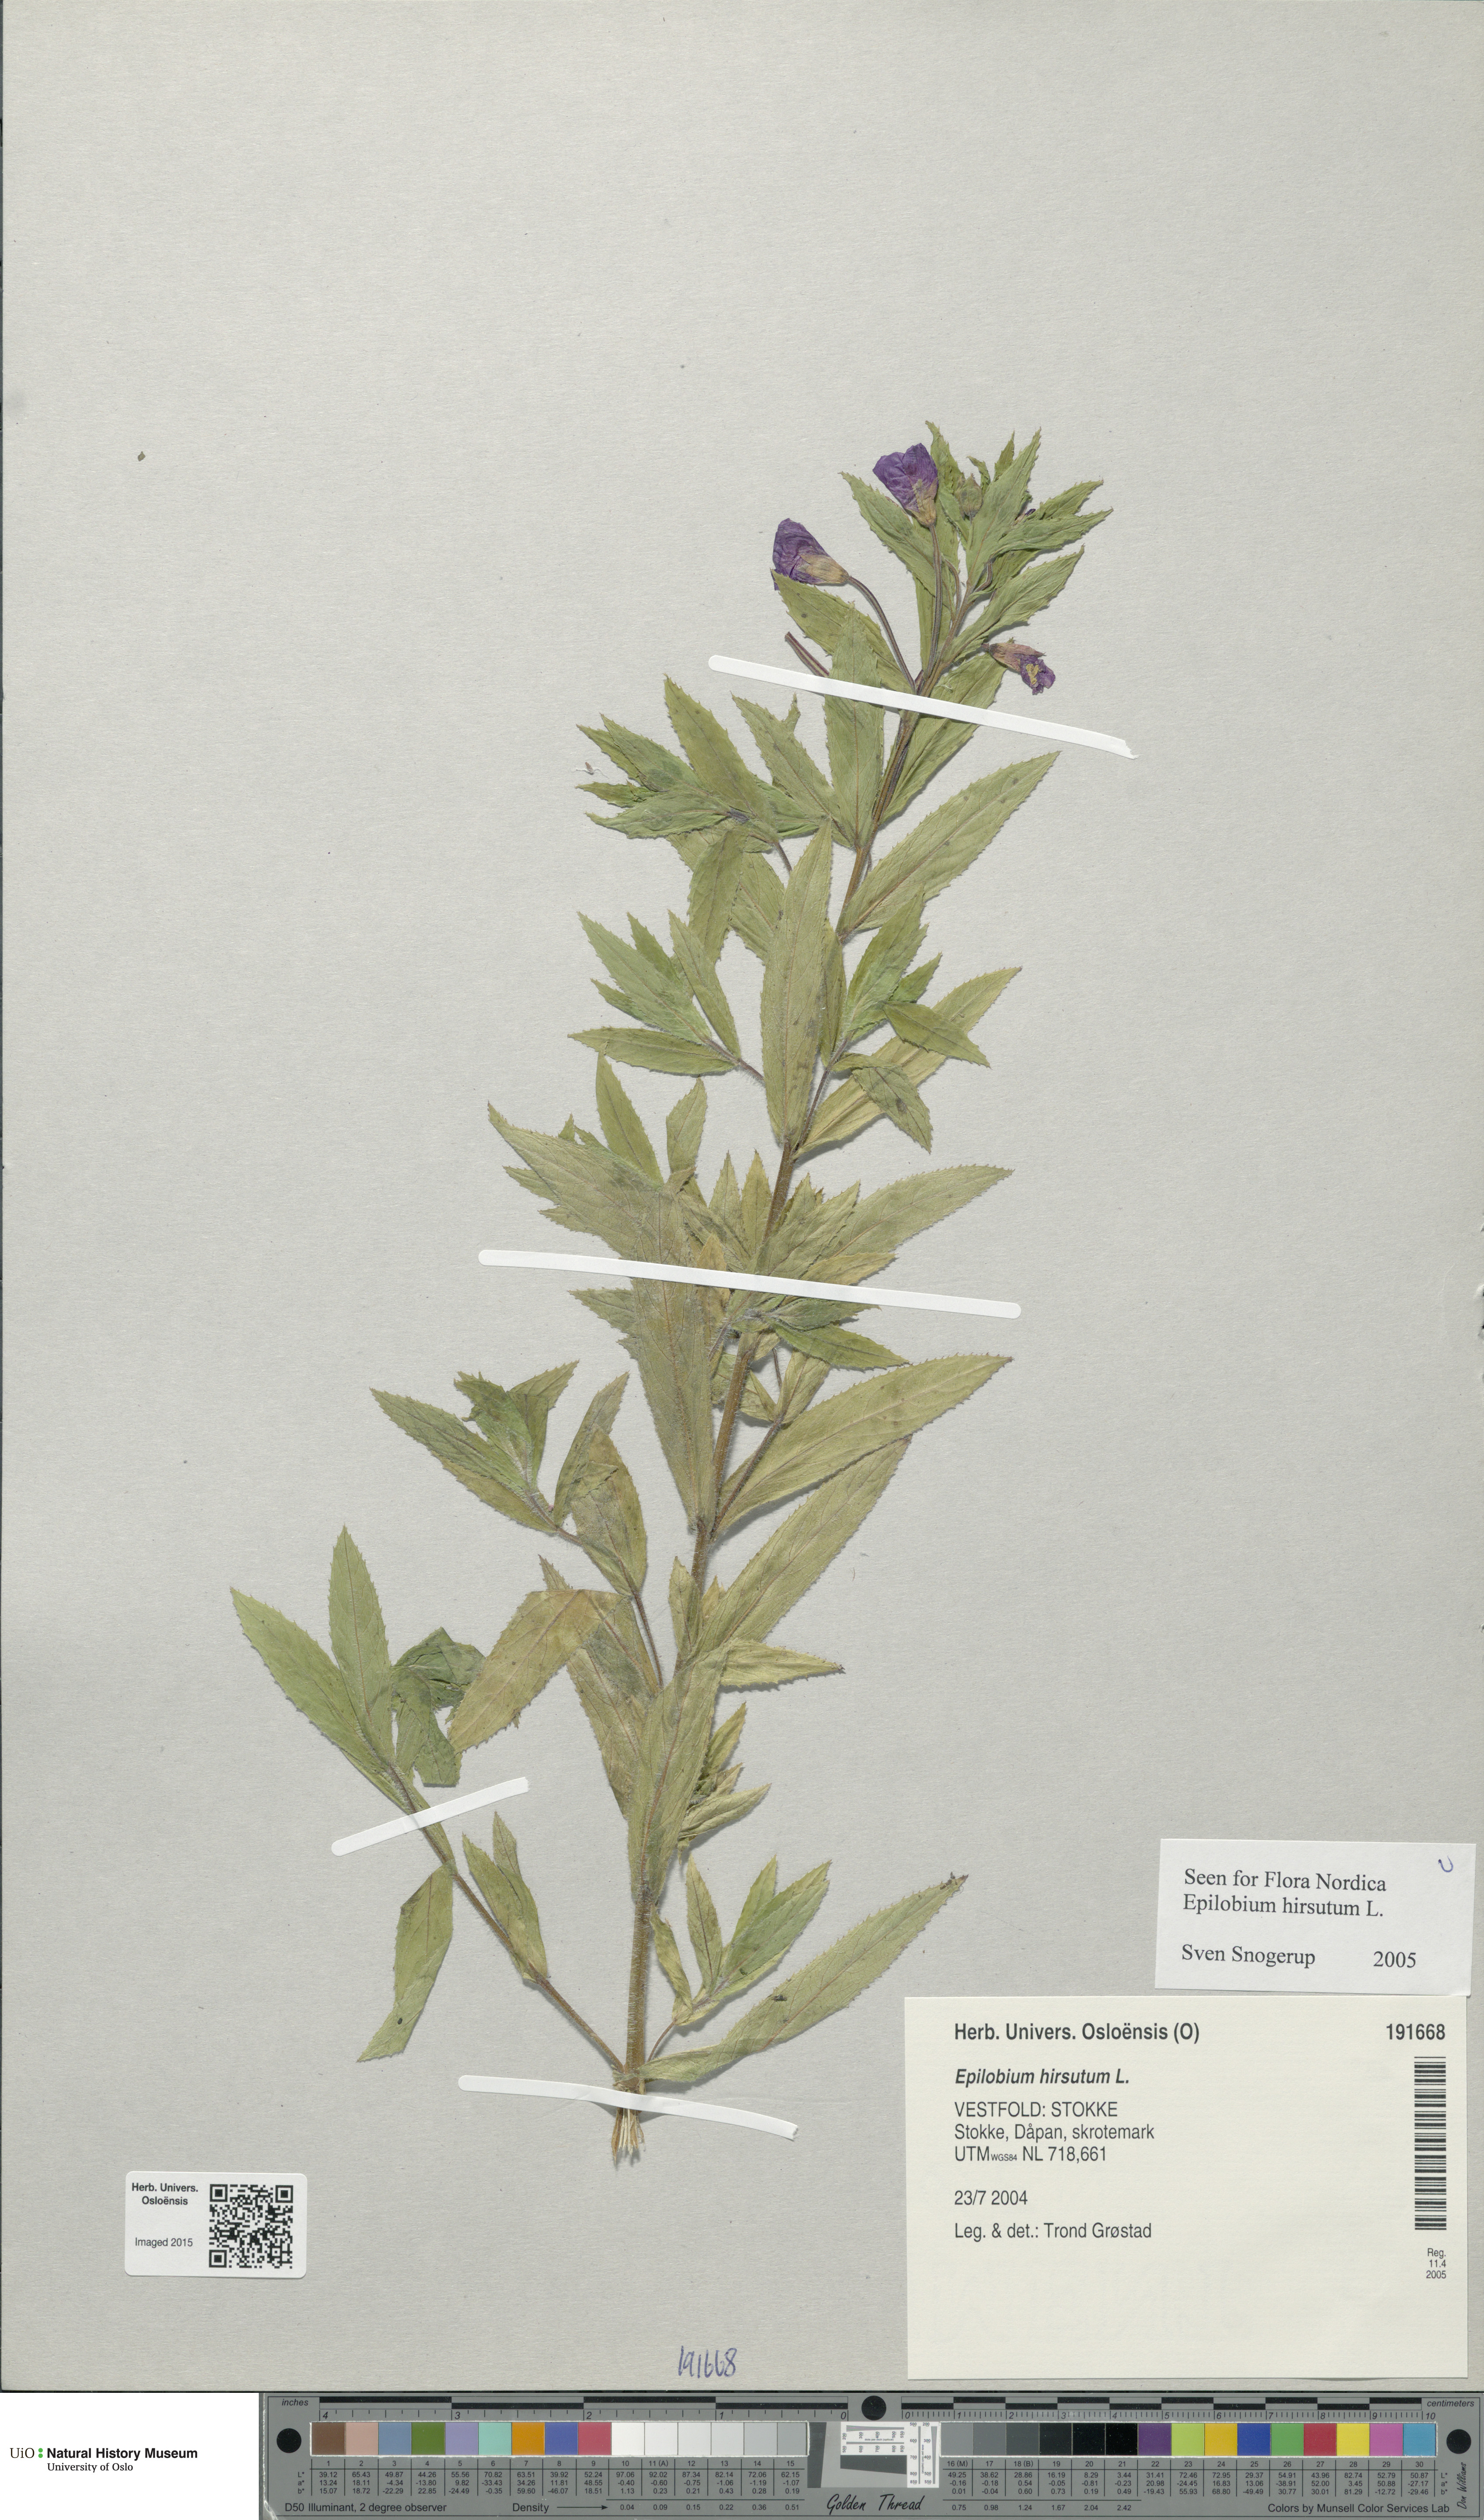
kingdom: Plantae
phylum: Tracheophyta
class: Magnoliopsida
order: Myrtales
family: Onagraceae
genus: Epilobium
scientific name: Epilobium hirsutum
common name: Great willowherb
